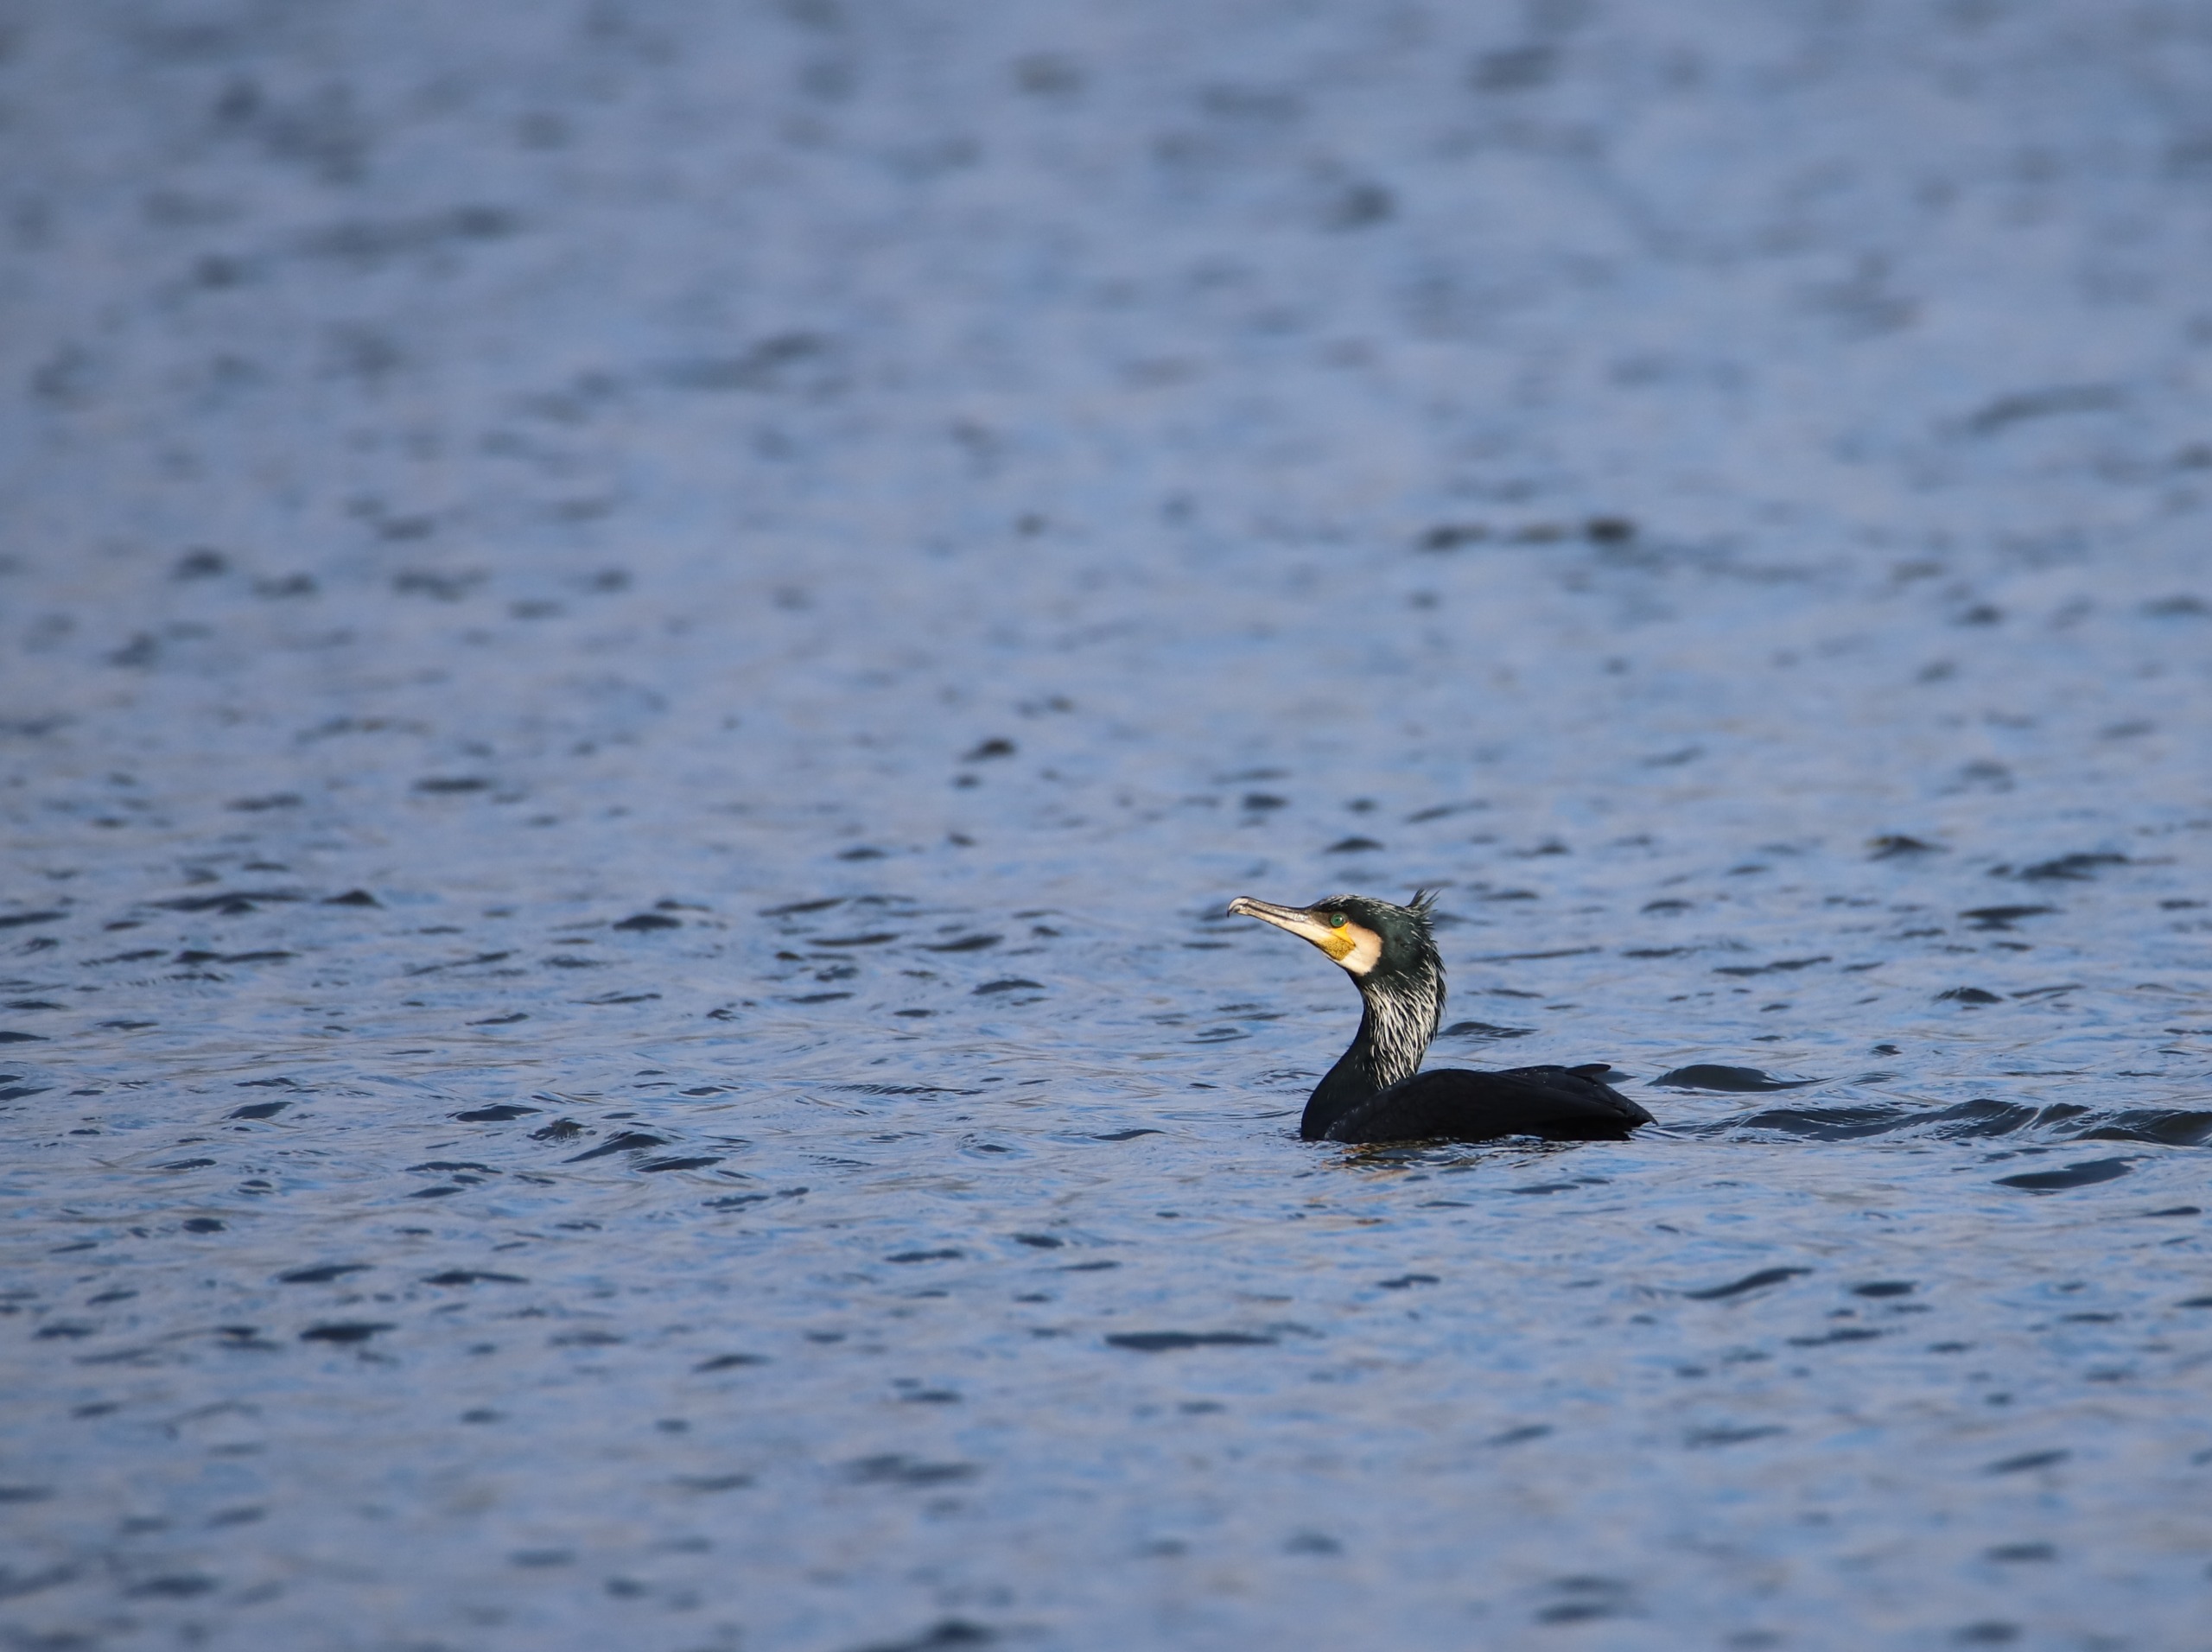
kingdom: Animalia
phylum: Chordata
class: Aves
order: Suliformes
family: Phalacrocoracidae
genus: Phalacrocorax
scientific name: Phalacrocorax carbo
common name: Skarv
